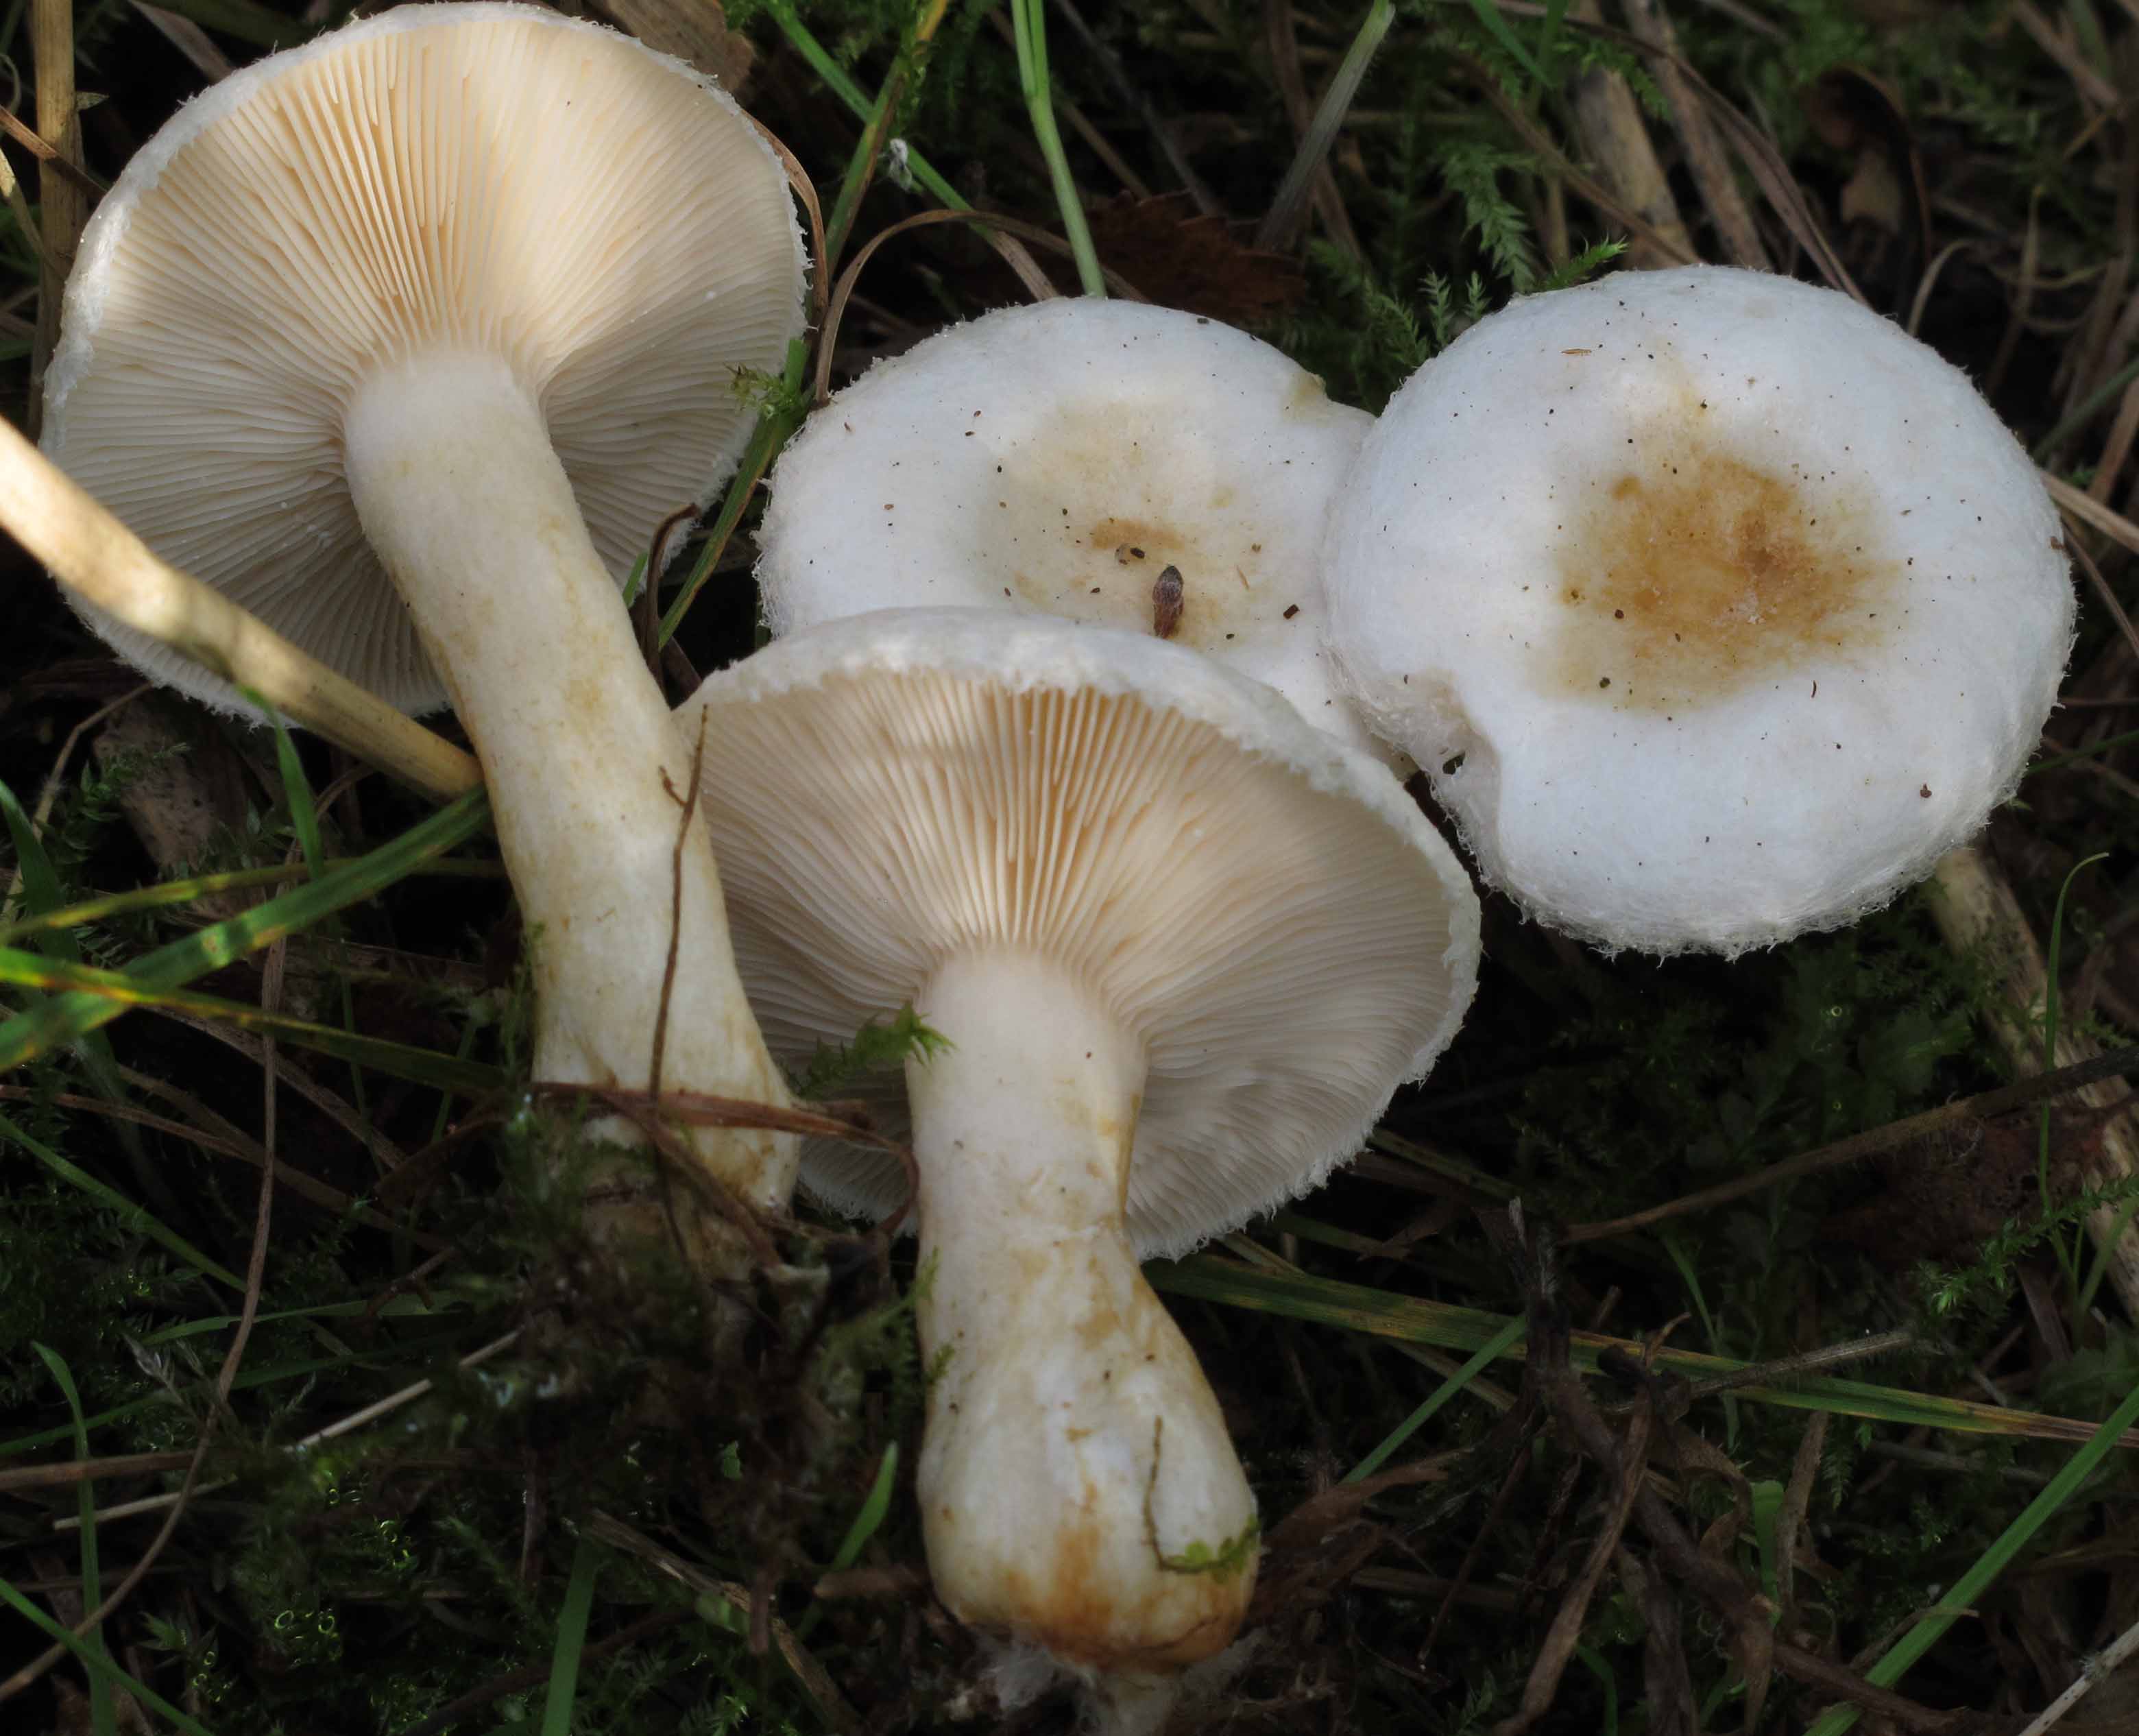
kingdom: Fungi
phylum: Basidiomycota
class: Agaricomycetes
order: Russulales
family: Russulaceae
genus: Lactarius
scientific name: Lactarius scoticus
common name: tørve-mælkehat
